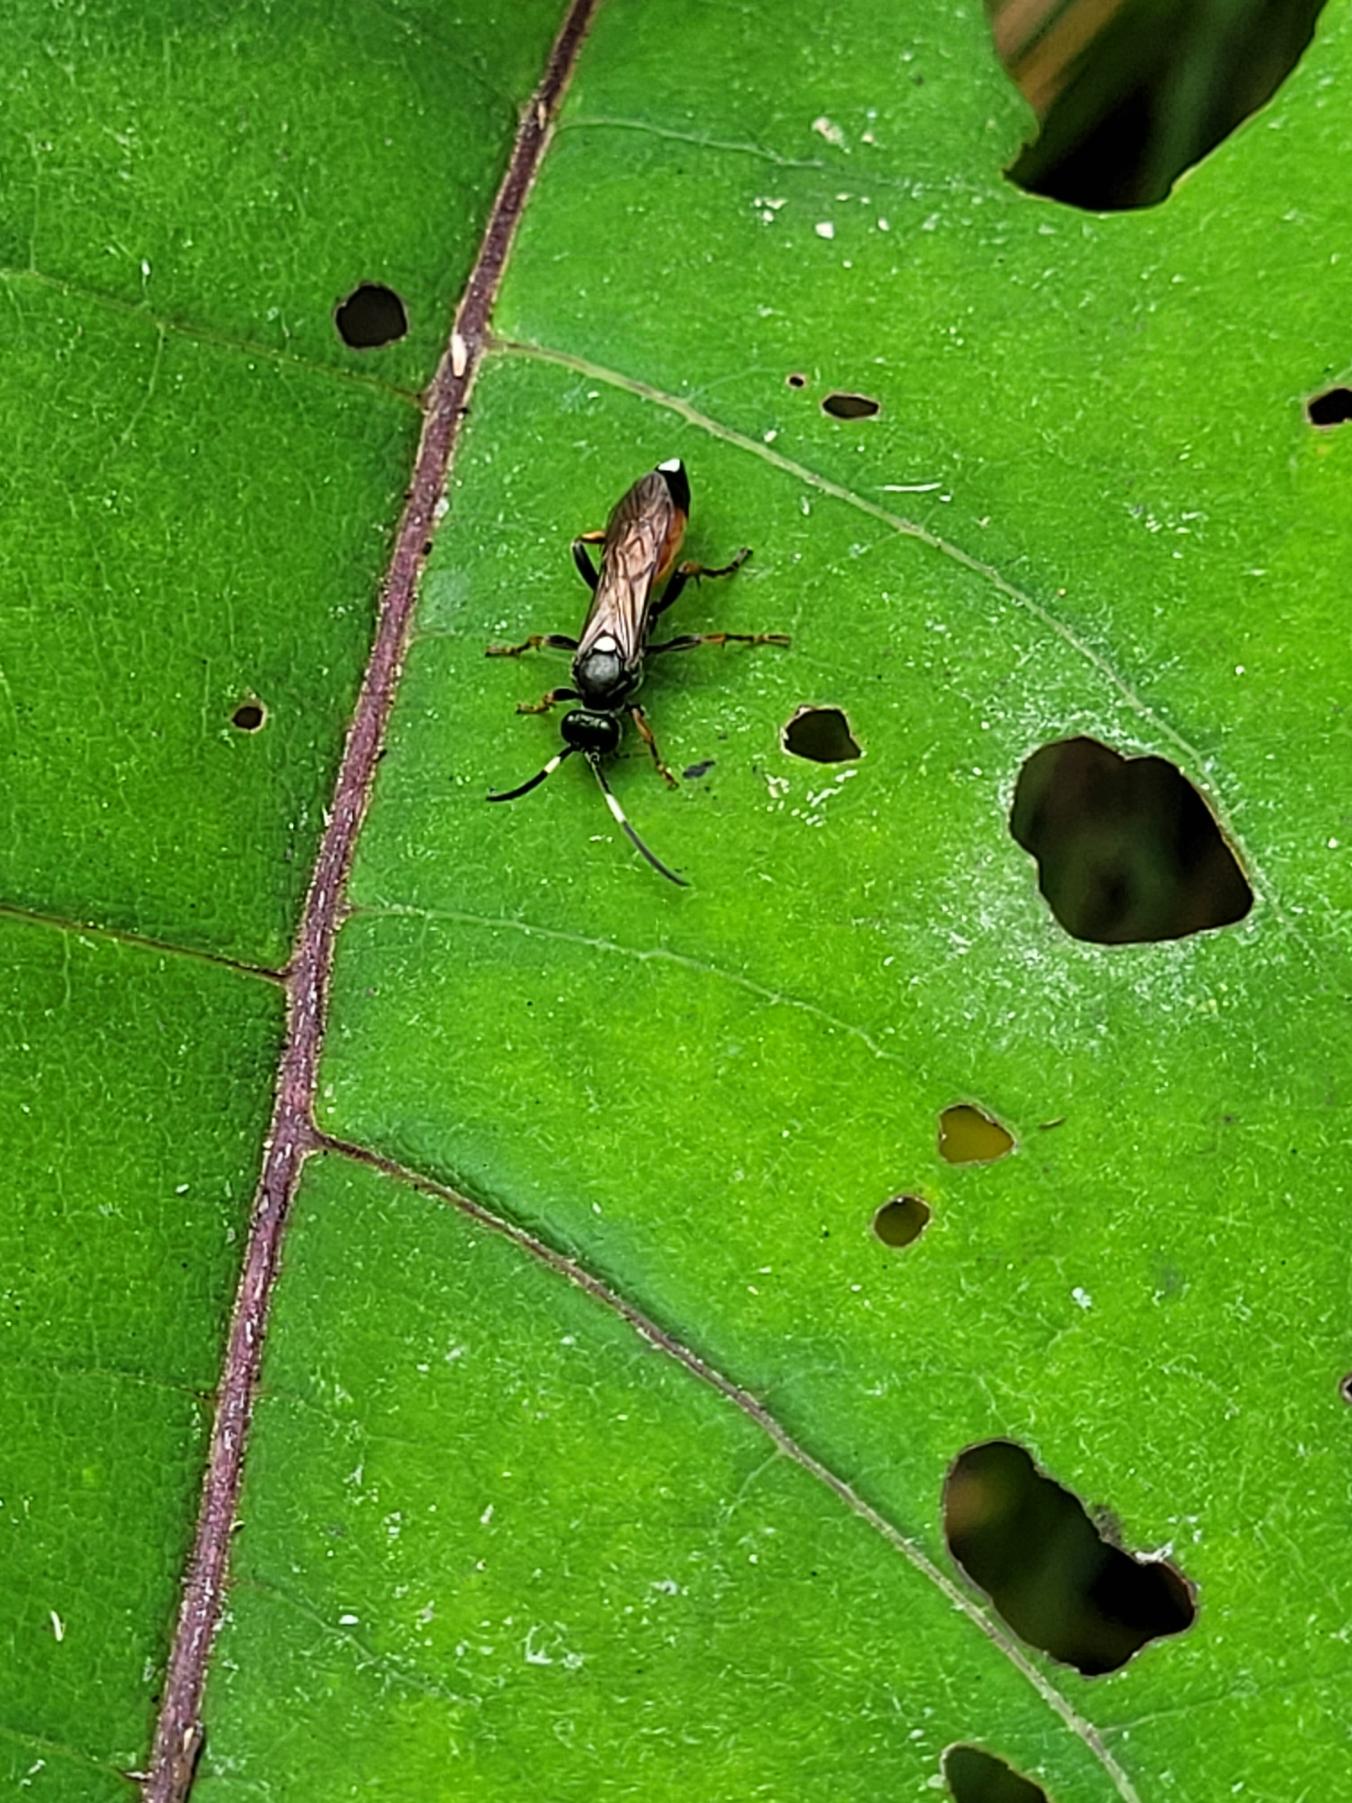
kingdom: Animalia
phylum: Arthropoda
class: Insecta
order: Hymenoptera
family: Ichneumonidae
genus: Ichneumon
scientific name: Ichneumon
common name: Ichneumon
